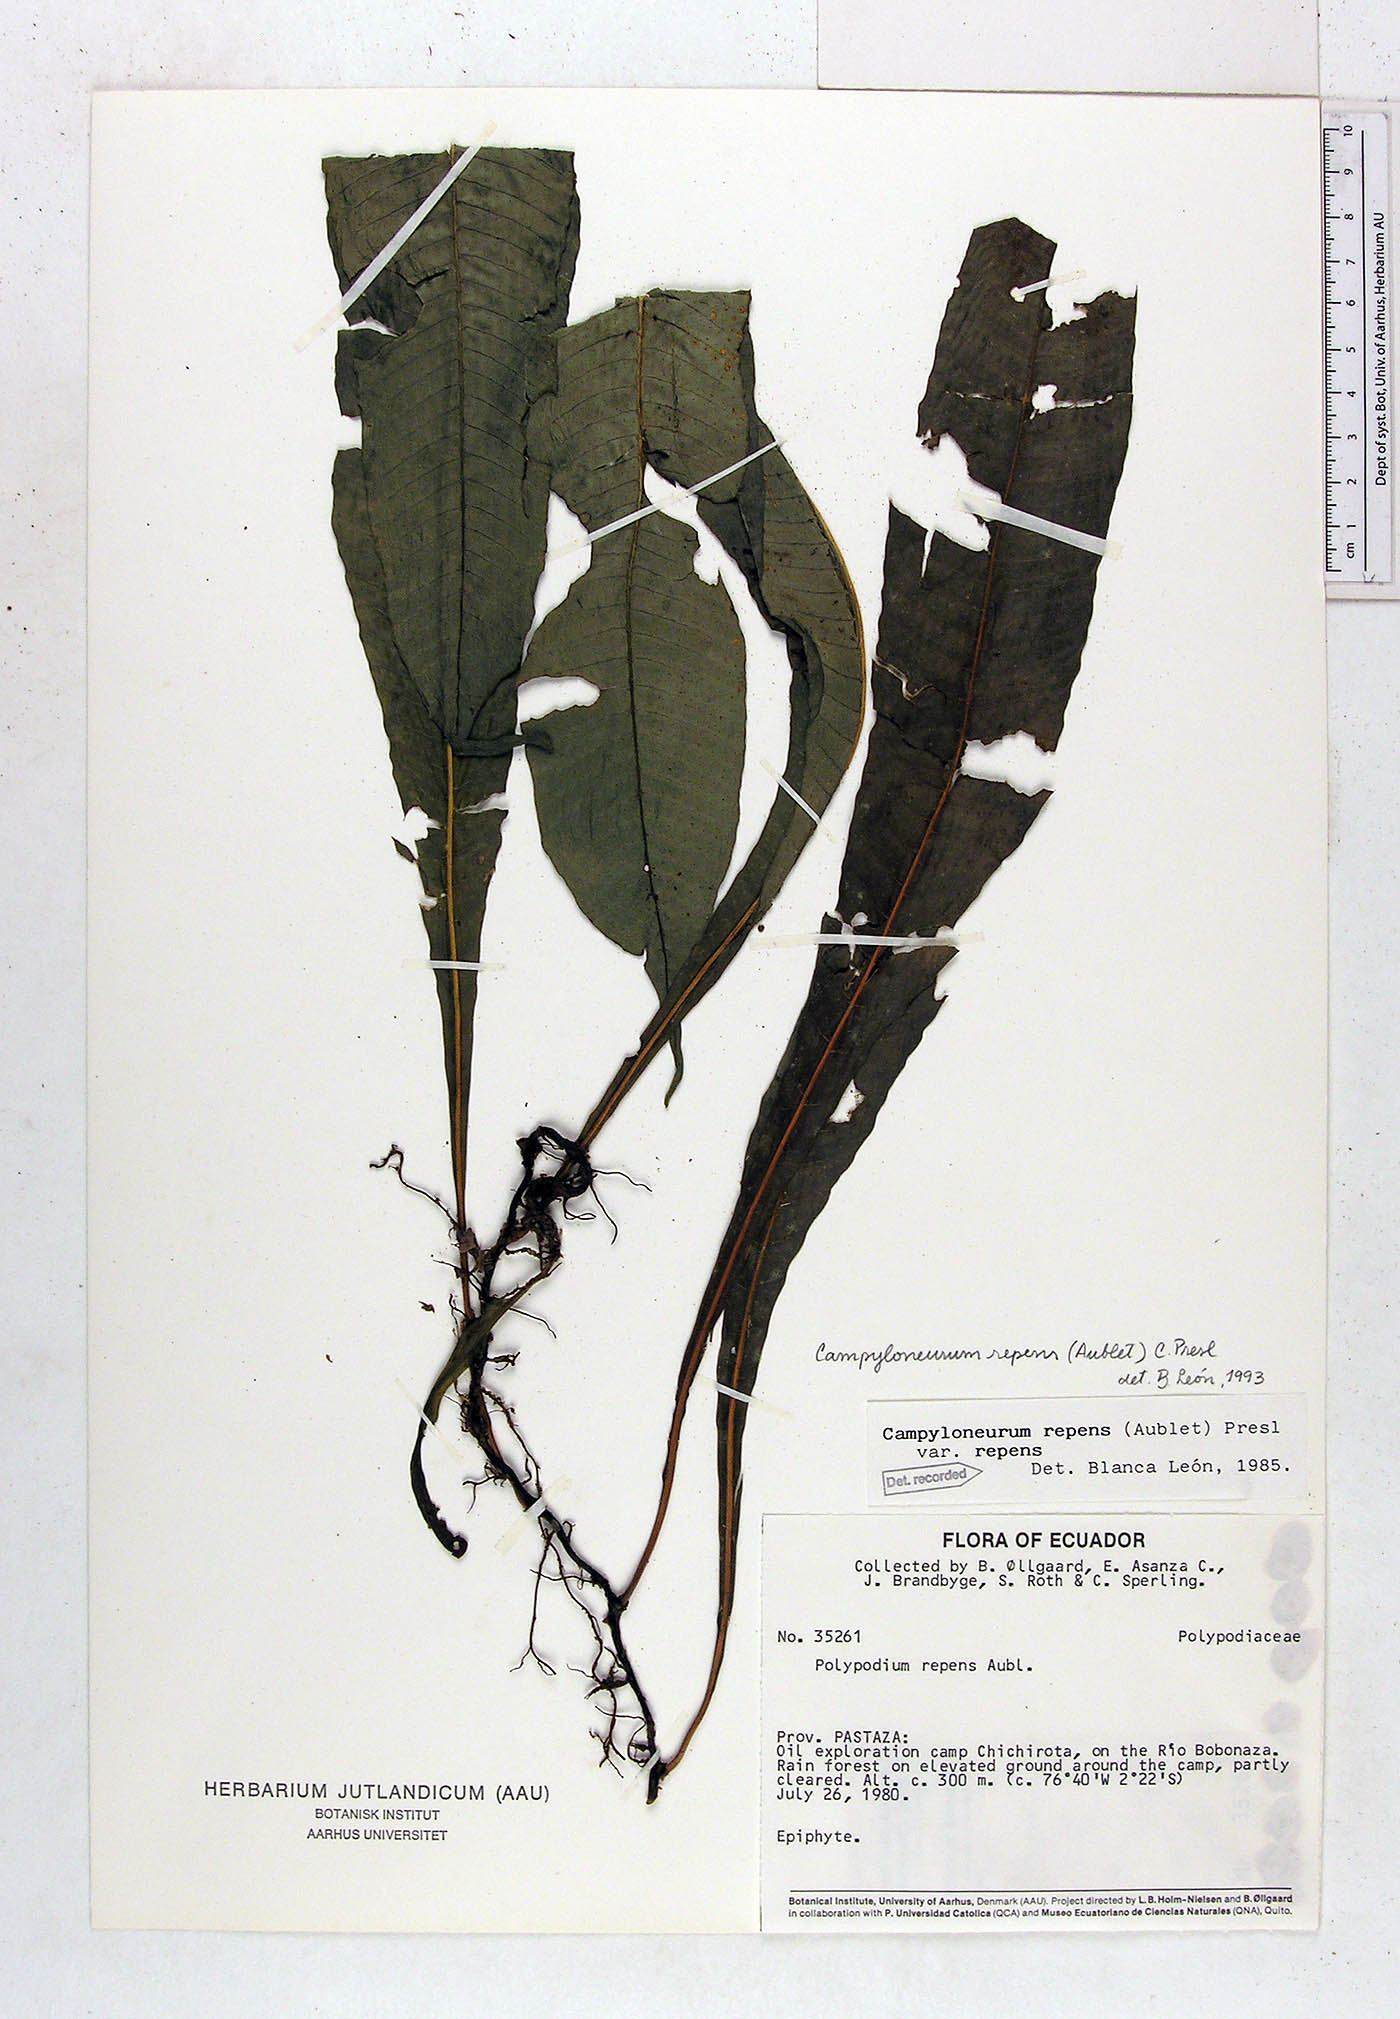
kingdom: Plantae
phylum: Tracheophyta
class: Polypodiopsida
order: Polypodiales
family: Polypodiaceae
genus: Campyloneurum
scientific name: Campyloneurum repens
